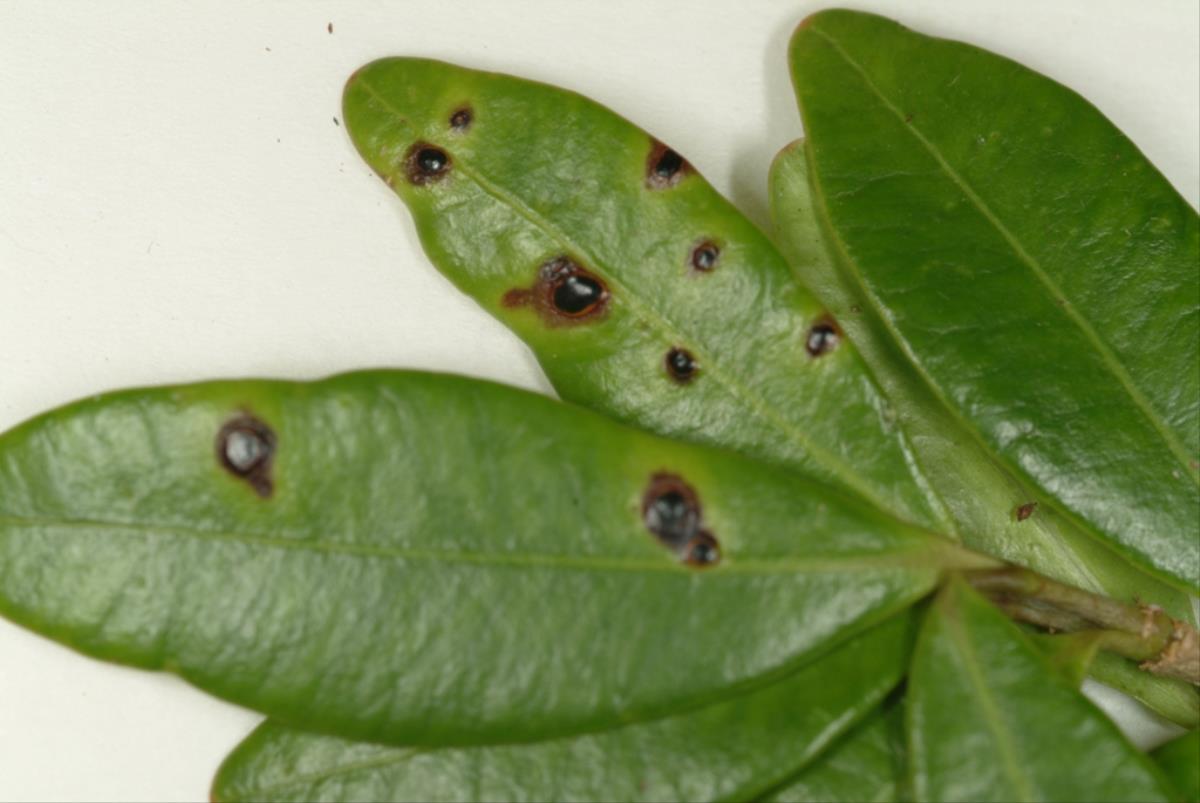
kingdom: Fungi
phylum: Ascomycota
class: Sordariomycetes
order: Phyllachorales
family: Phyllachoraceae
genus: Phyllachora
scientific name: Phyllachora alyxiae
